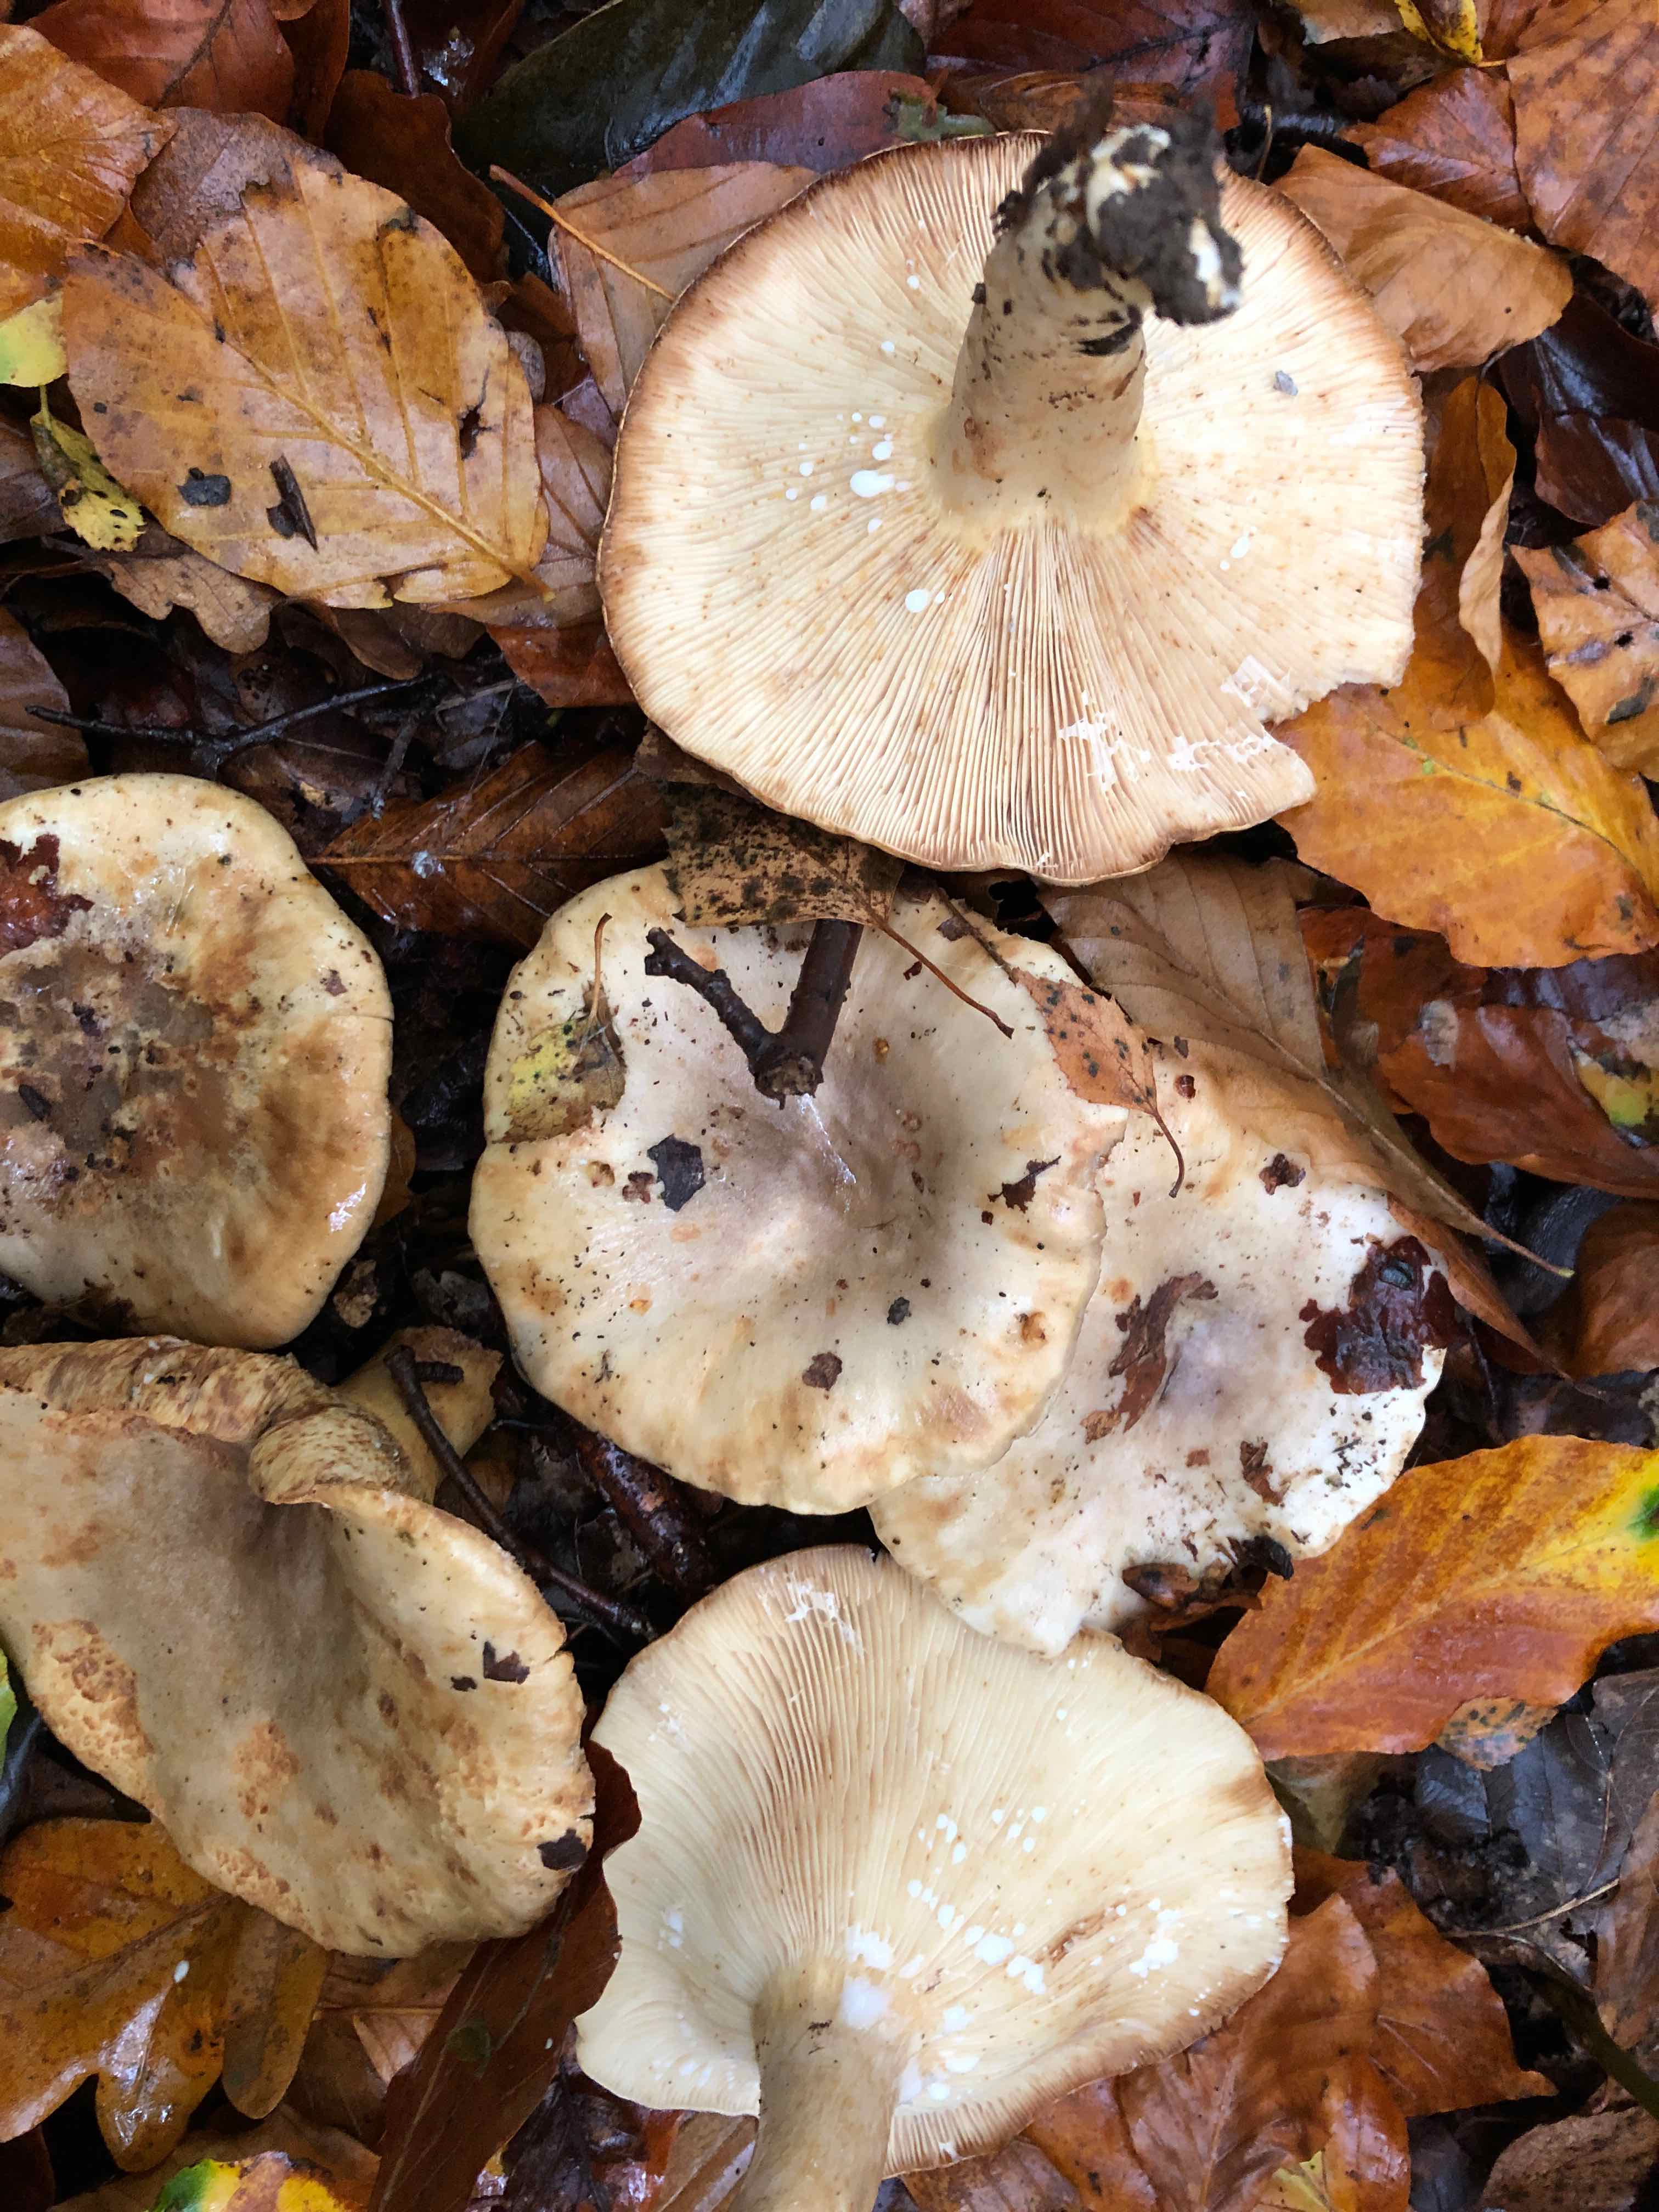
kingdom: Fungi
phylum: Basidiomycota
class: Agaricomycetes
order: Russulales
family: Russulaceae
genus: Lactarius
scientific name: Lactarius
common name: mælkehat
